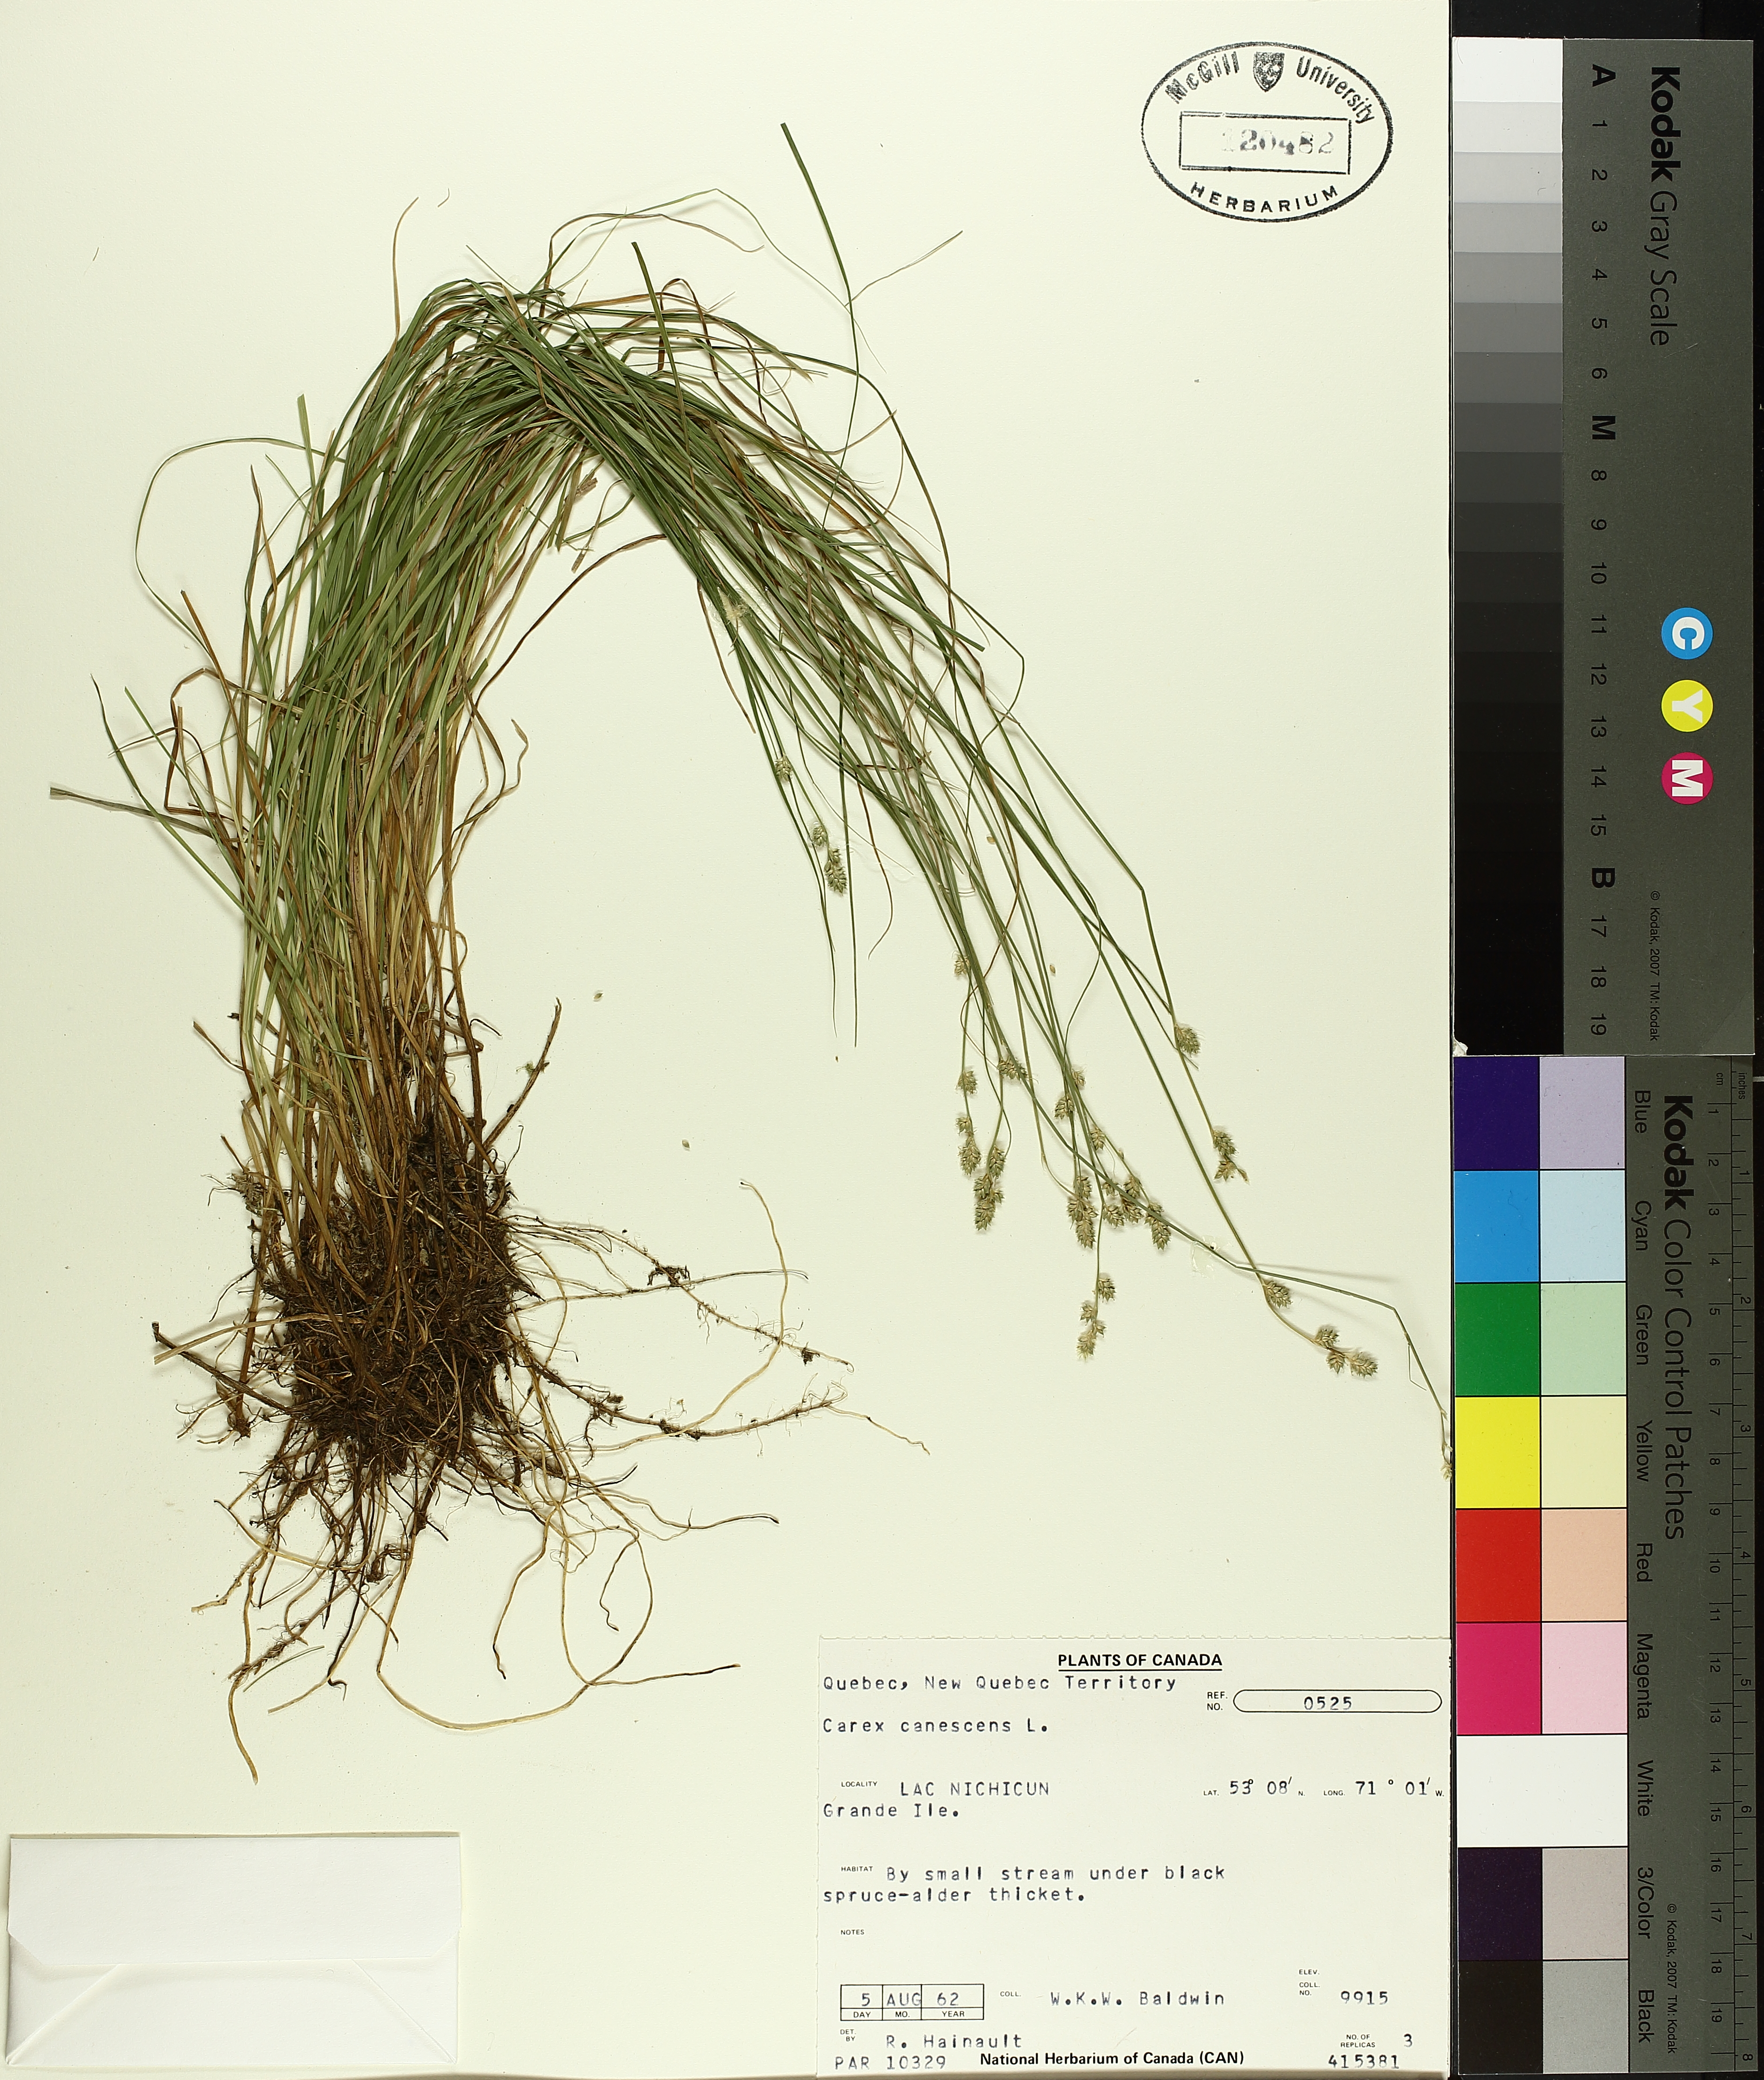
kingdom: Plantae
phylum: Tracheophyta
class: Liliopsida
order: Poales
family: Cyperaceae
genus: Carex
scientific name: Carex canescens
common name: White sedge
